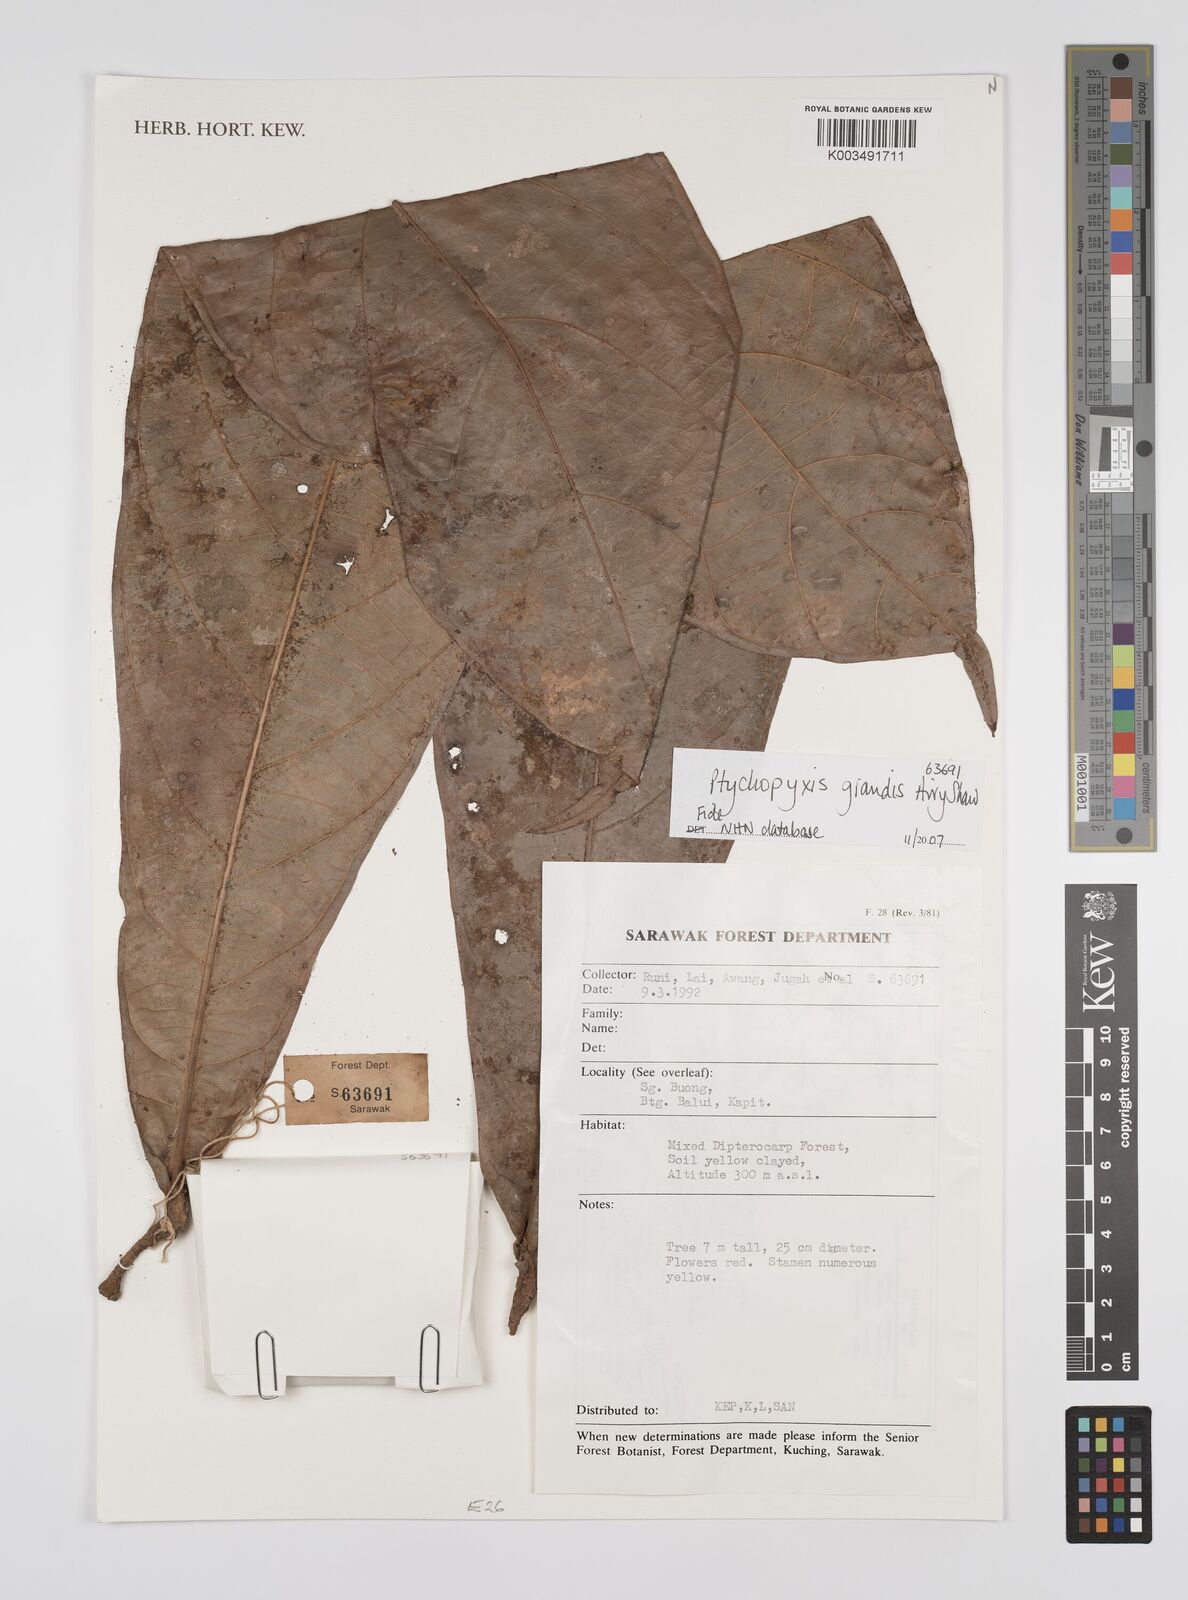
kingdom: Plantae
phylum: Tracheophyta
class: Magnoliopsida
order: Malpighiales
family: Euphorbiaceae
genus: Ptychopyxis
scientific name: Ptychopyxis grandis
